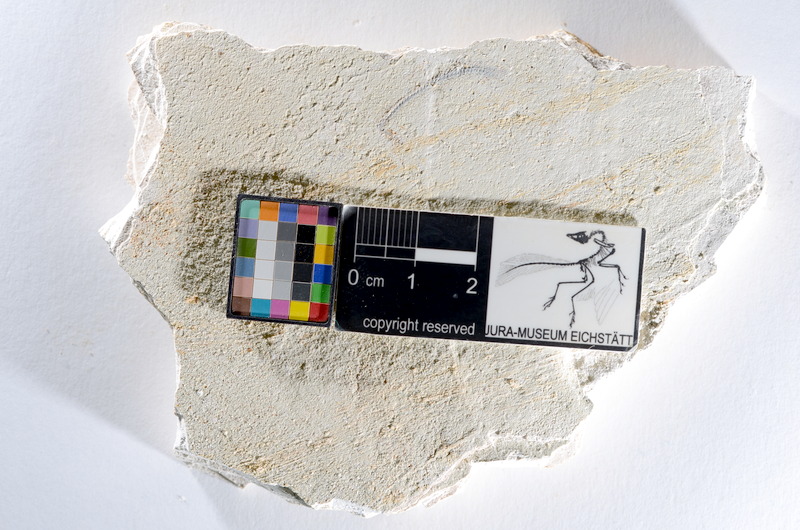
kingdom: Animalia
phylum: Chordata
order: Salmoniformes
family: Orthogonikleithridae
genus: Orthogonikleithrus
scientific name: Orthogonikleithrus hoelli
